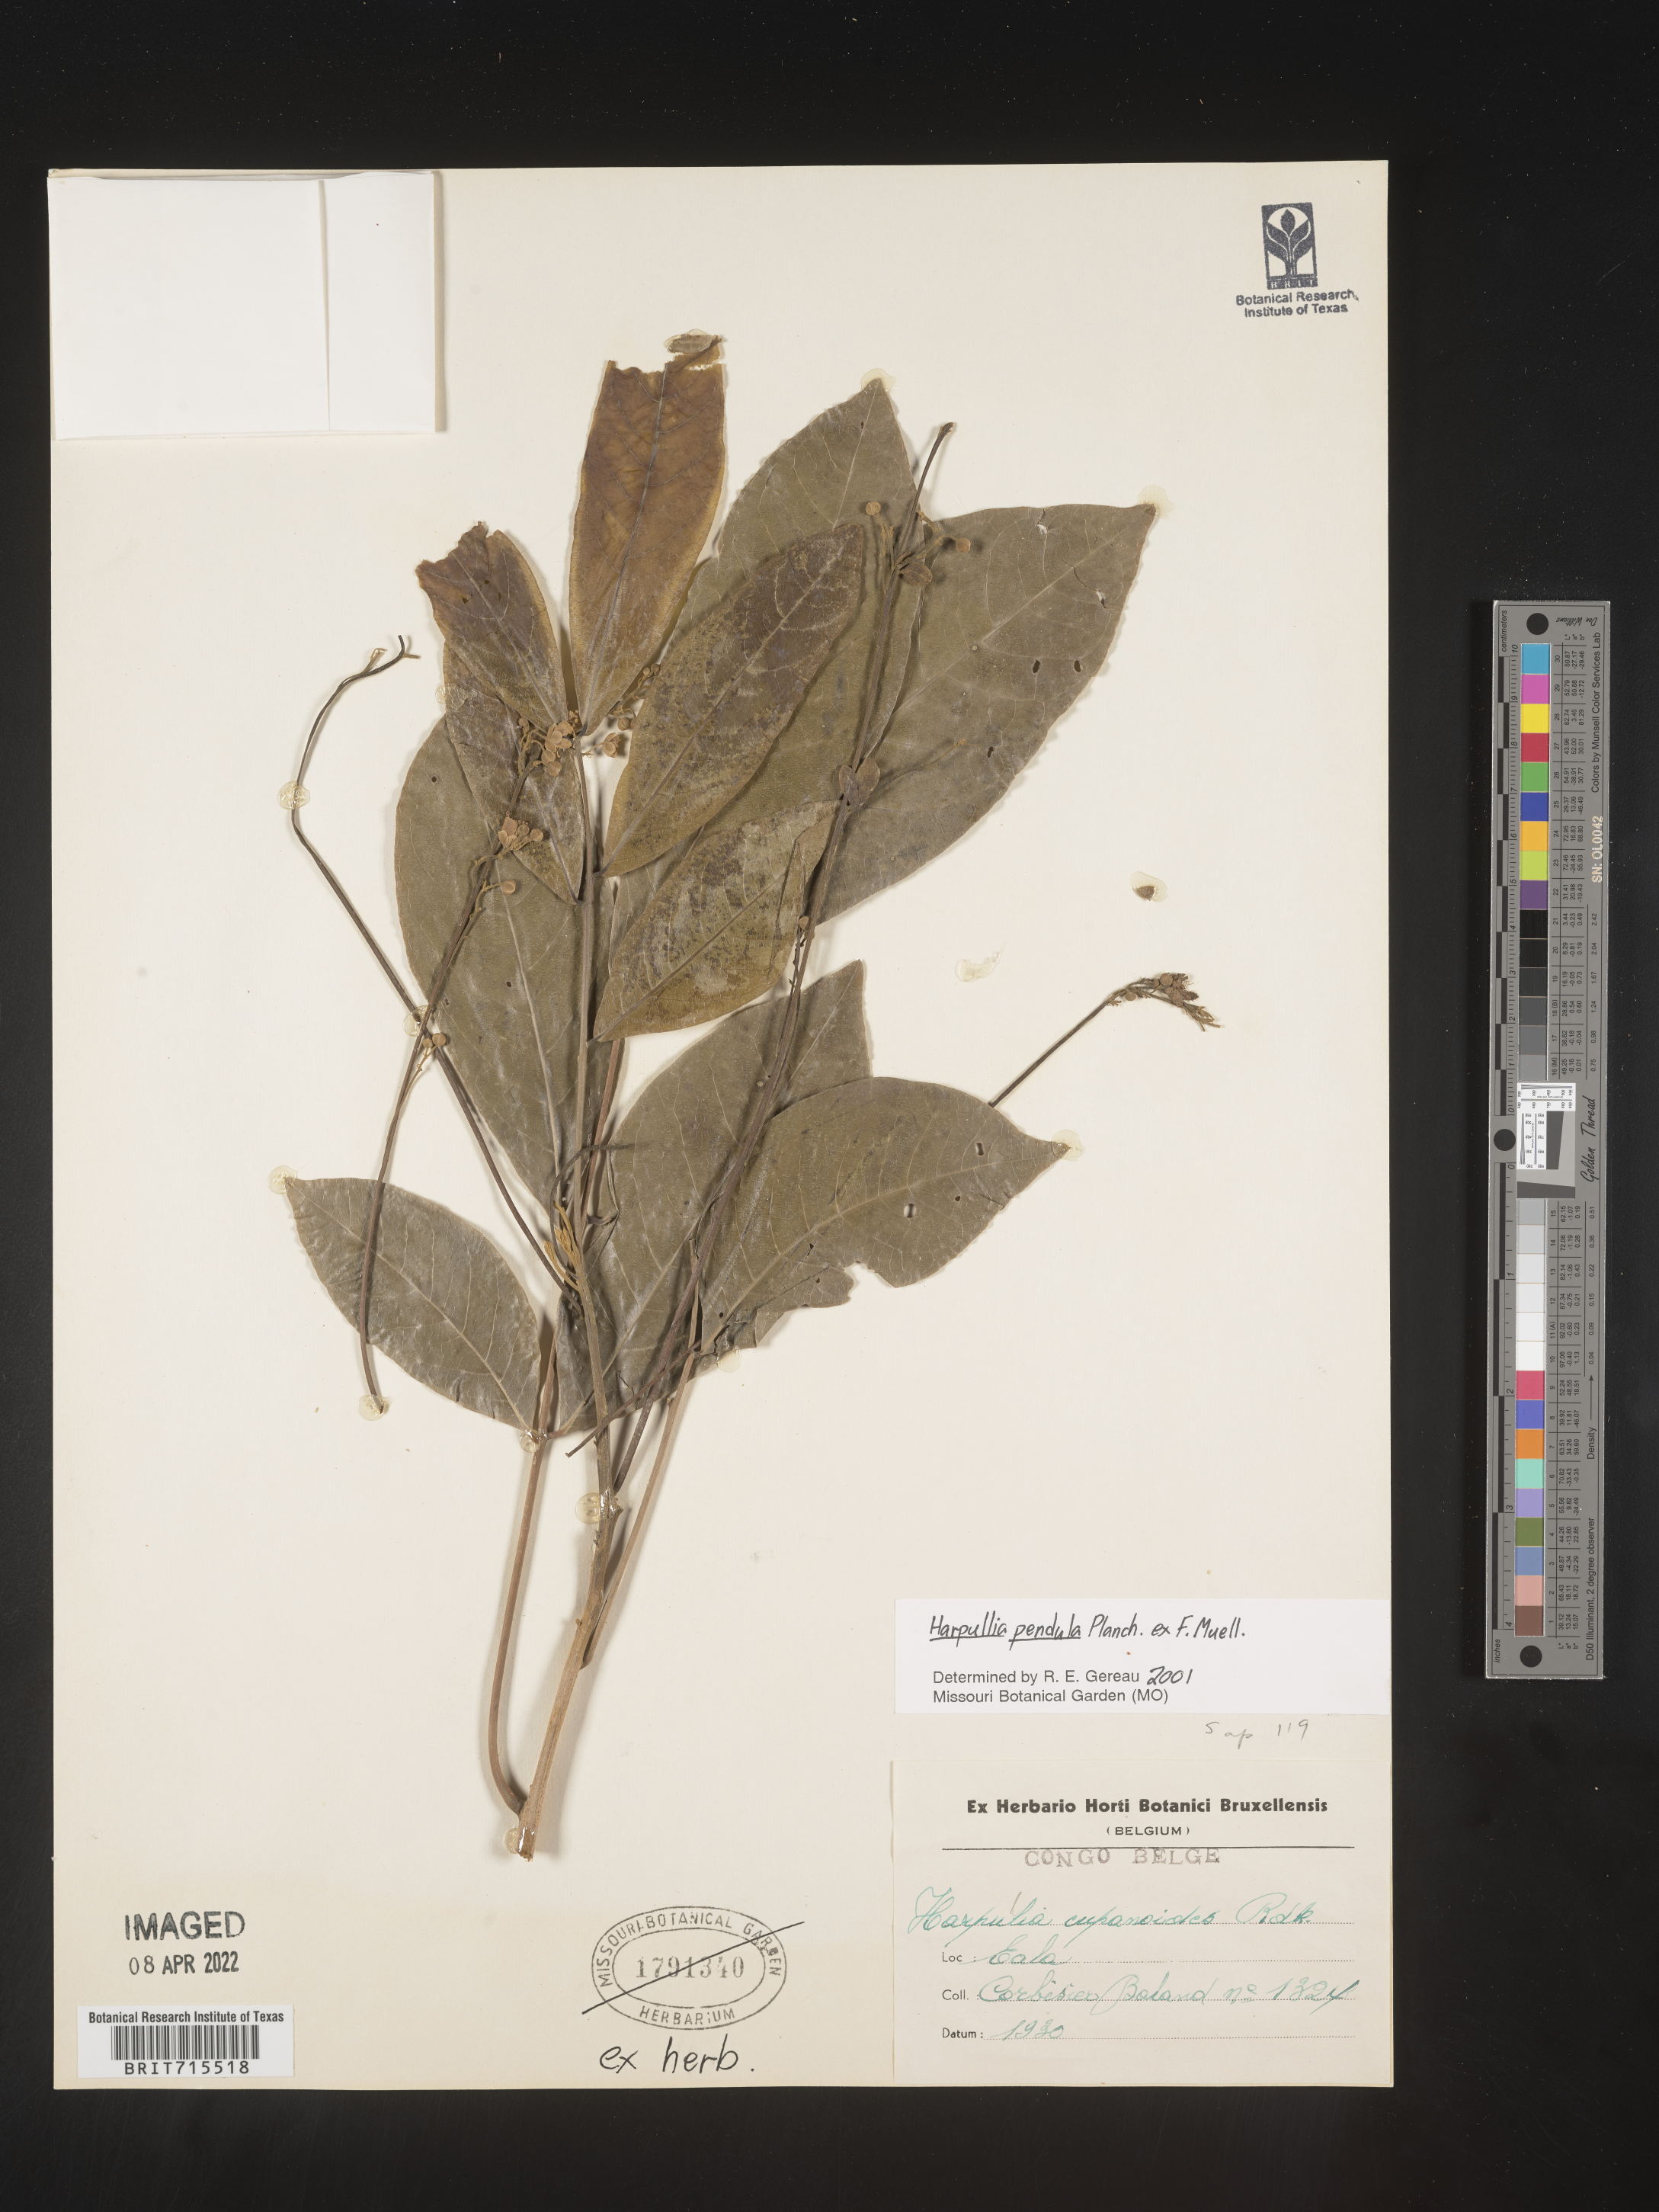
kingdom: Plantae
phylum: Tracheophyta
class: Magnoliopsida
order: Sapindales
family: Sapindaceae
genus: Harpullia
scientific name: Harpullia
